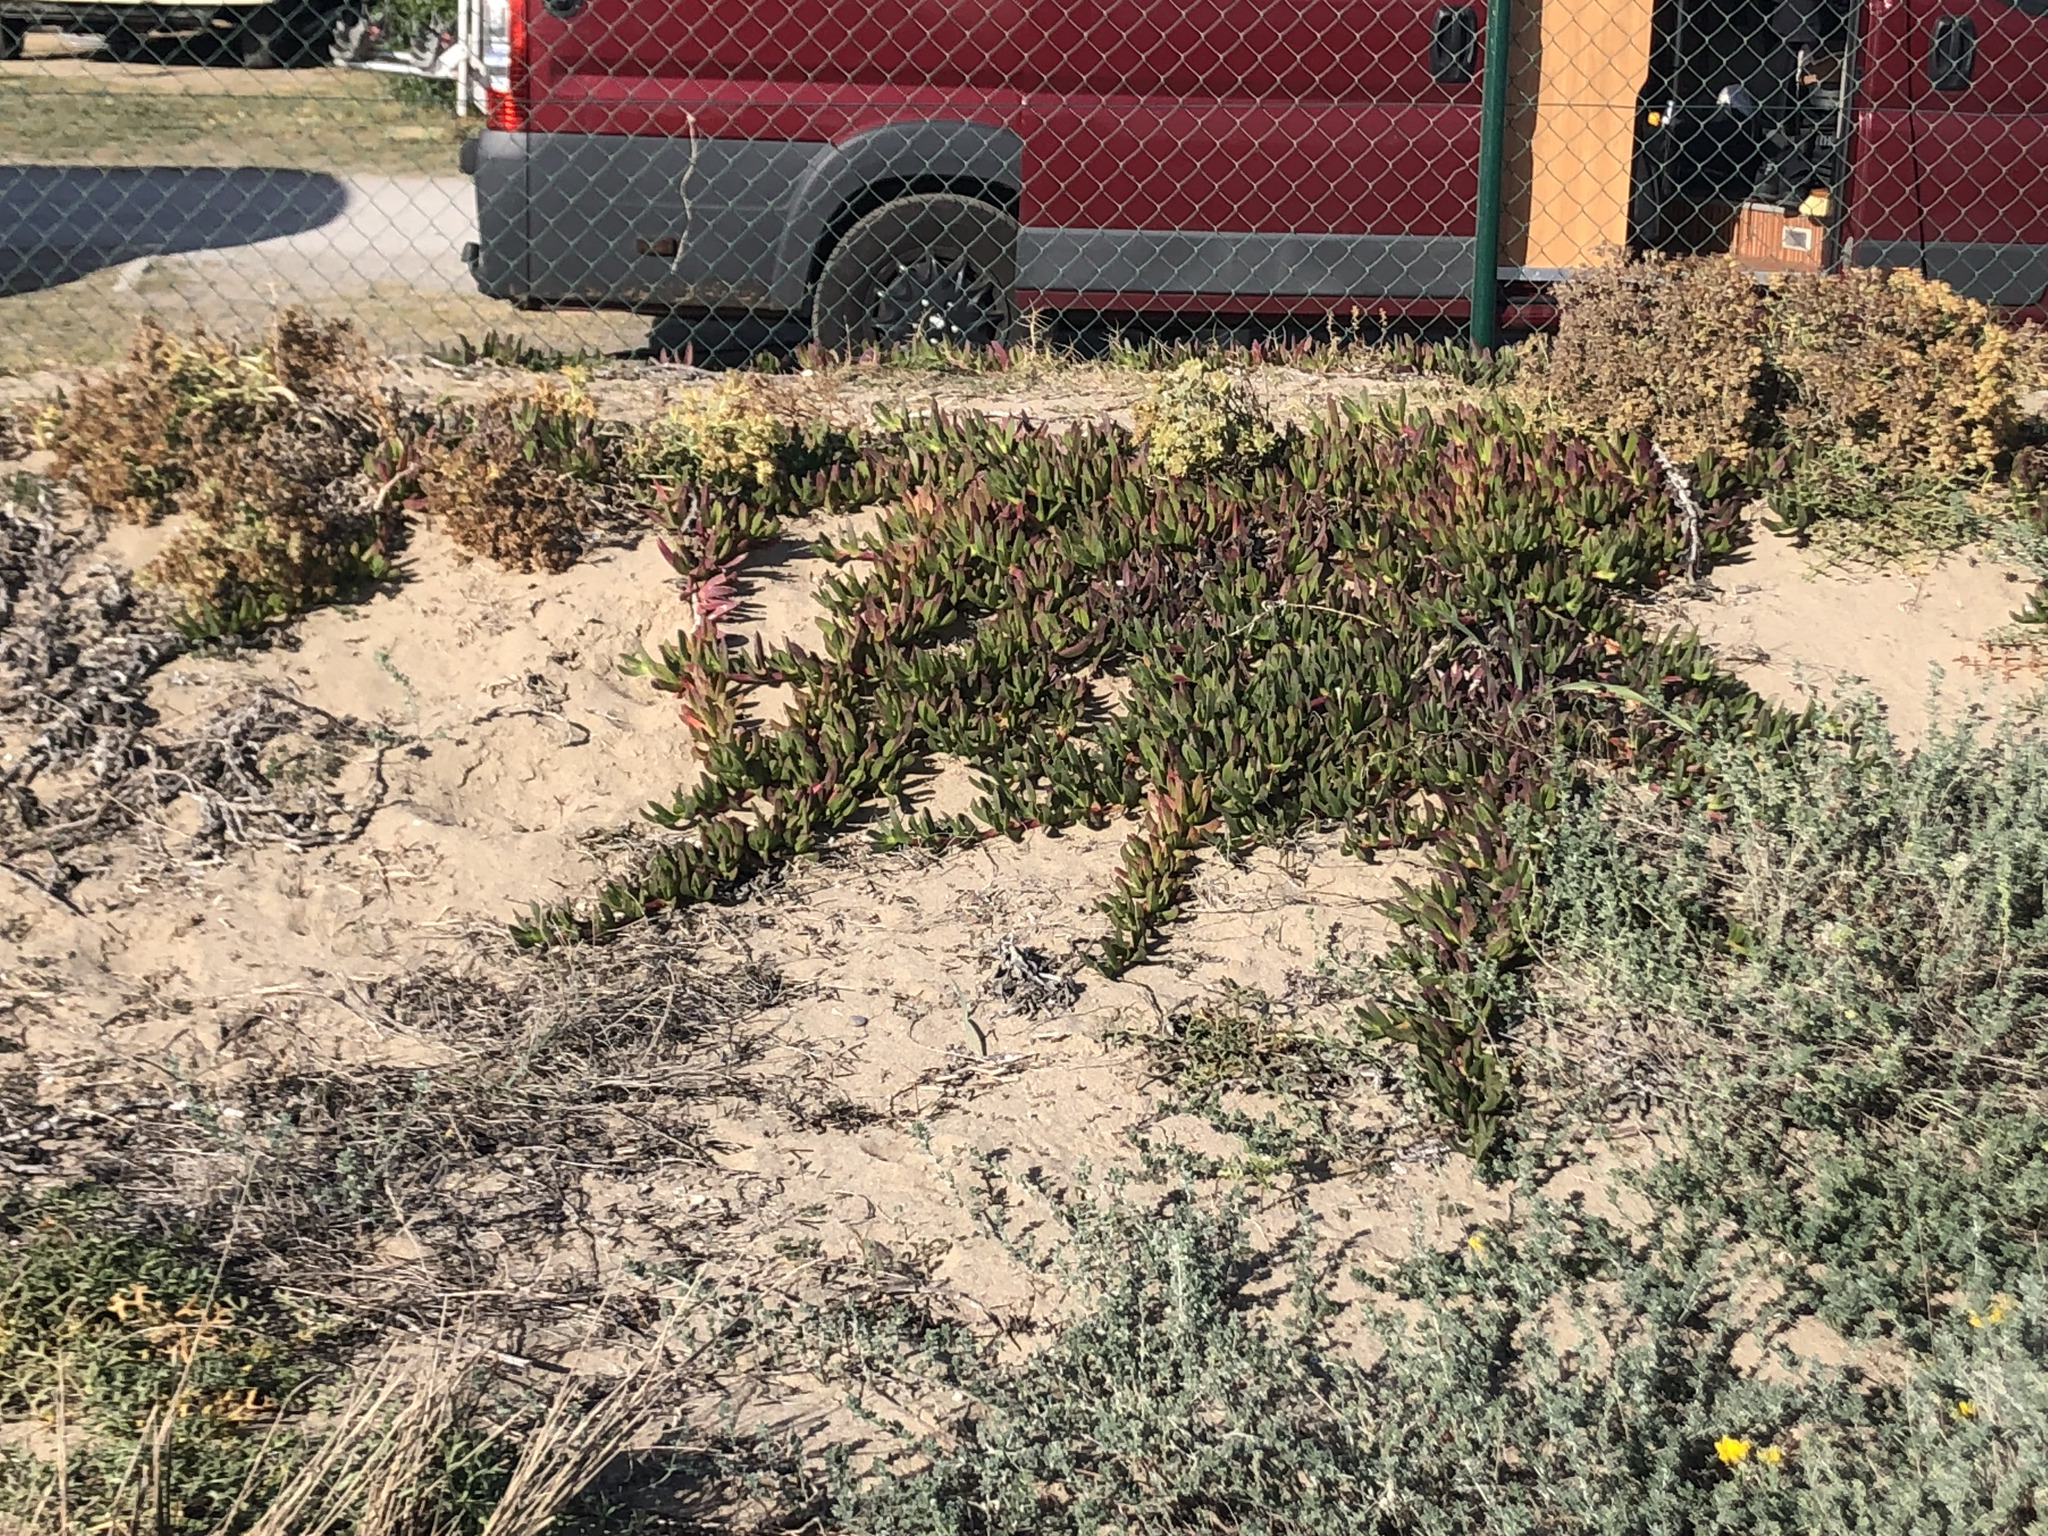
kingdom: Plantae
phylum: Tracheophyta
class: Magnoliopsida
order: Caryophyllales
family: Aizoaceae
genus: Carpobrotus
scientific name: Carpobrotus edulis
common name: Hottentot-fig
